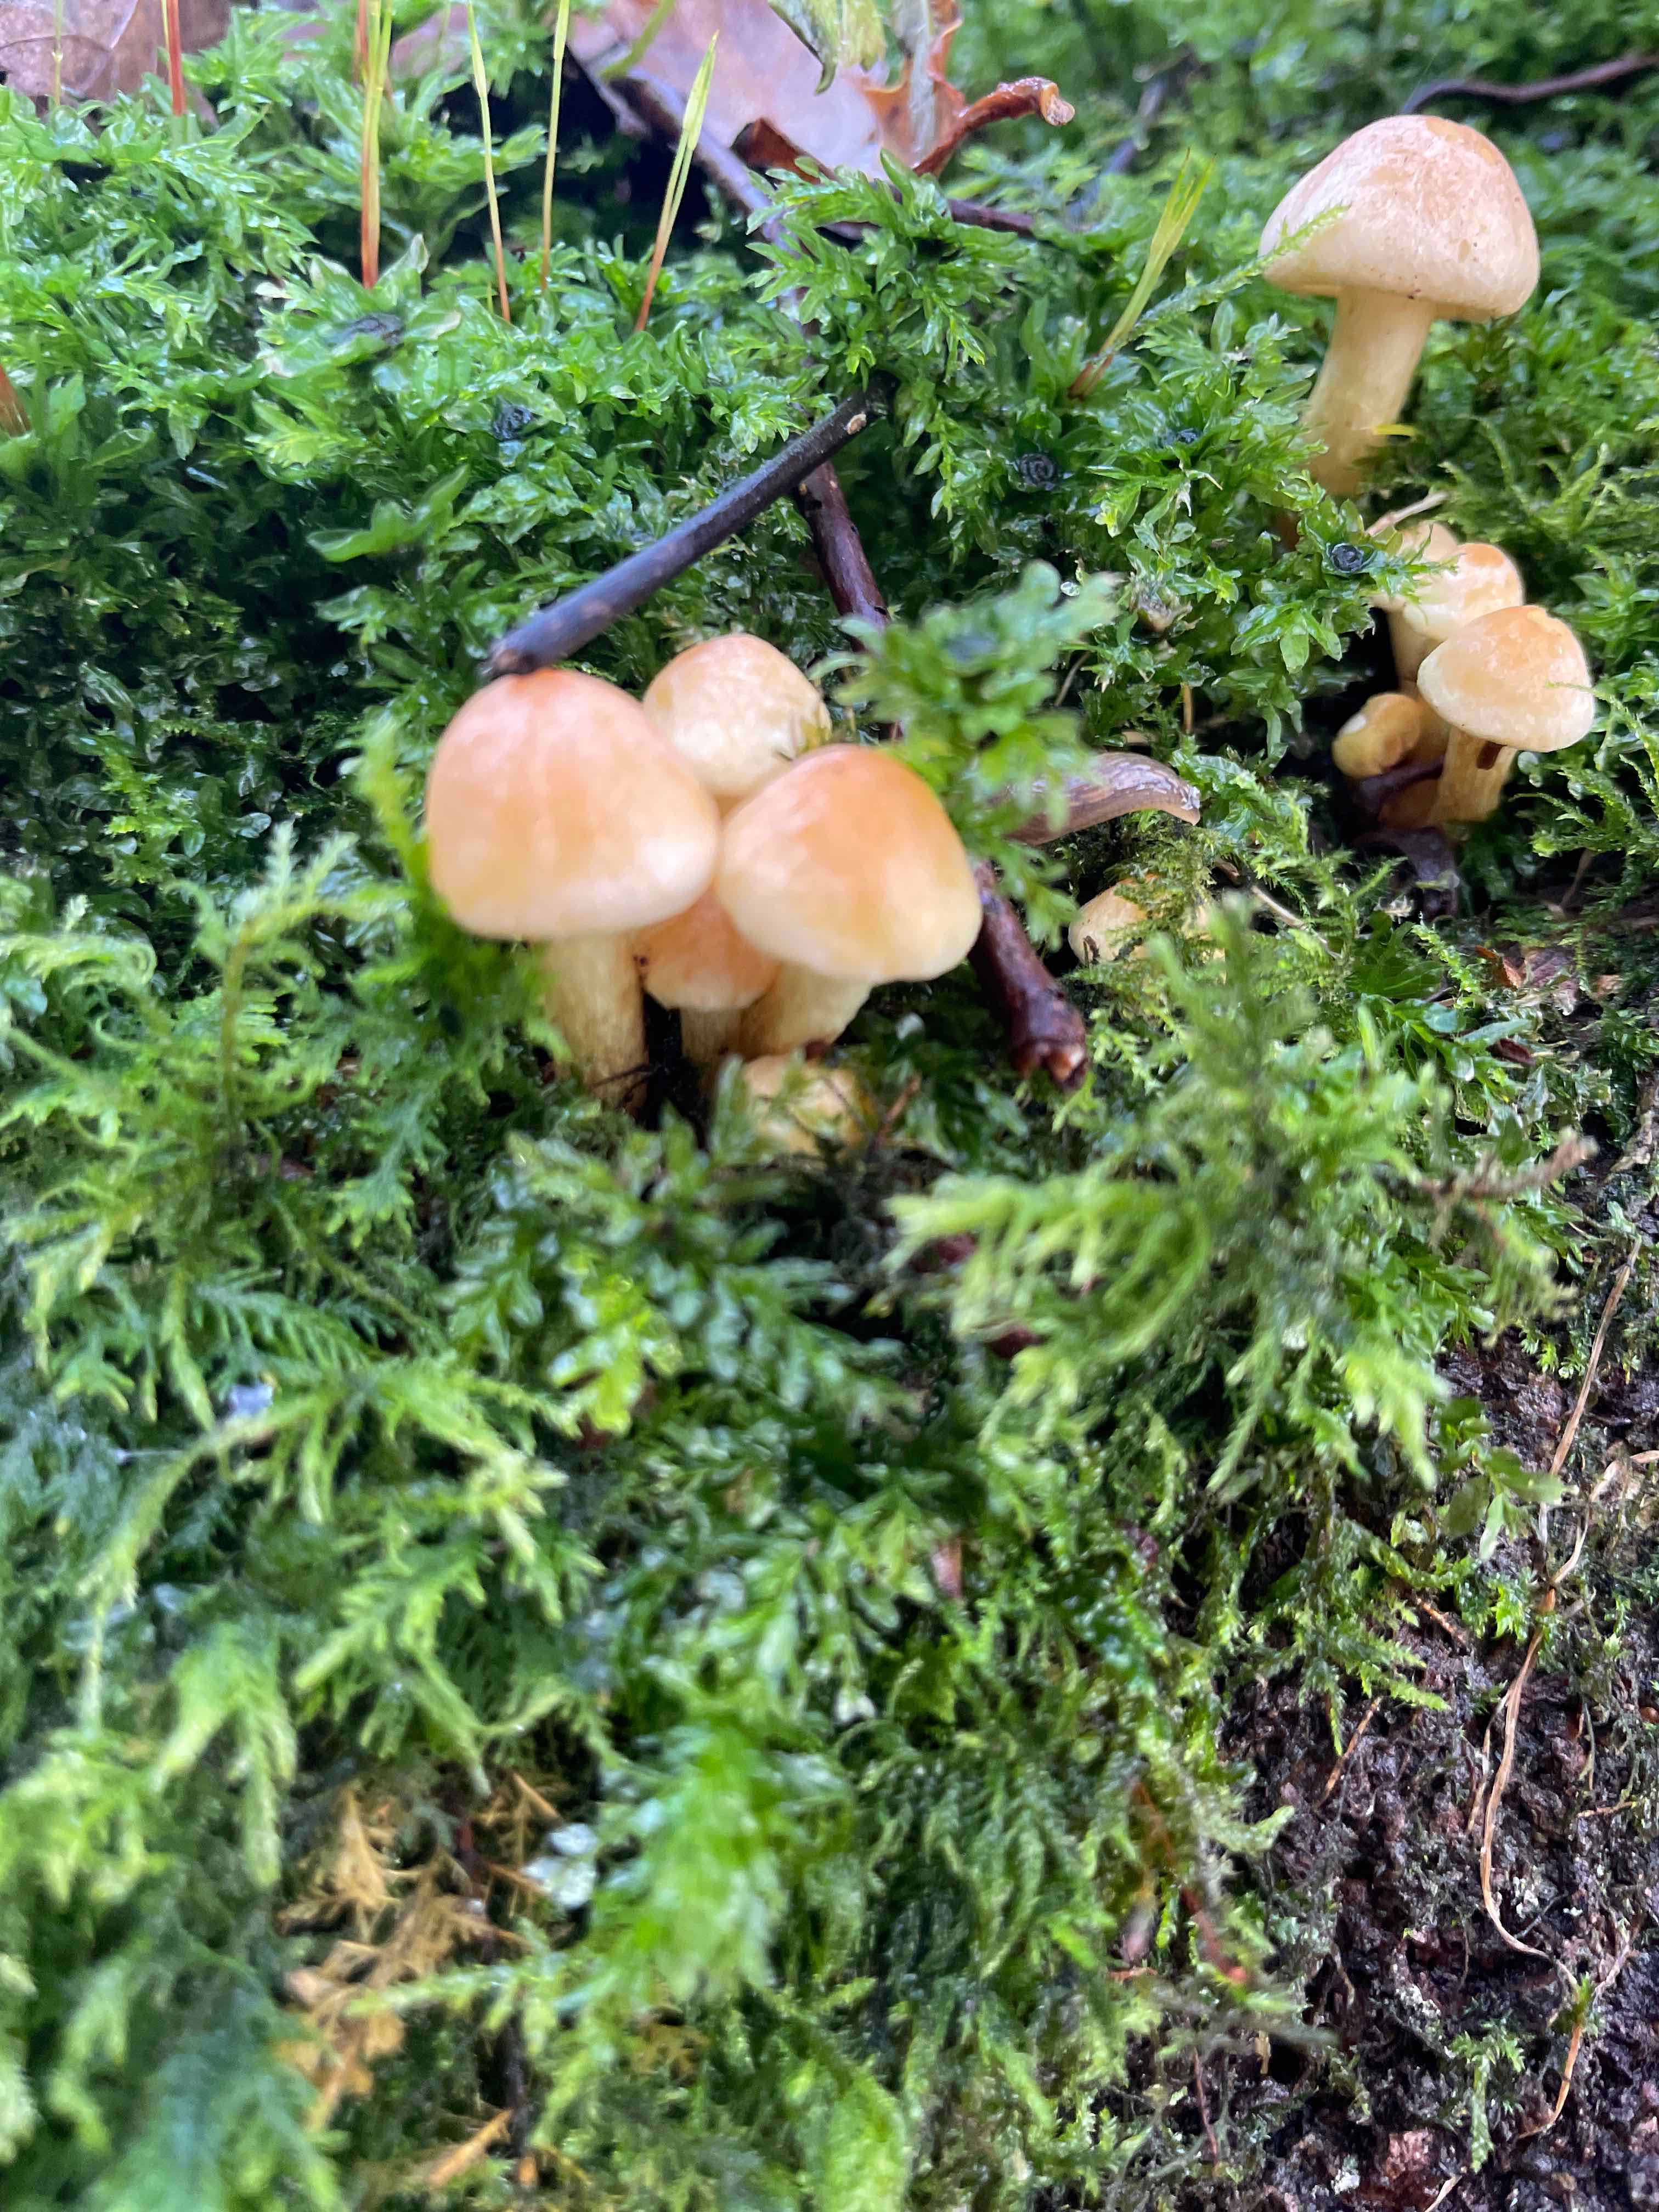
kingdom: Fungi
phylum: Basidiomycota
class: Agaricomycetes
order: Agaricales
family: Strophariaceae
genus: Hypholoma
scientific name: Hypholoma
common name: svovlhat
